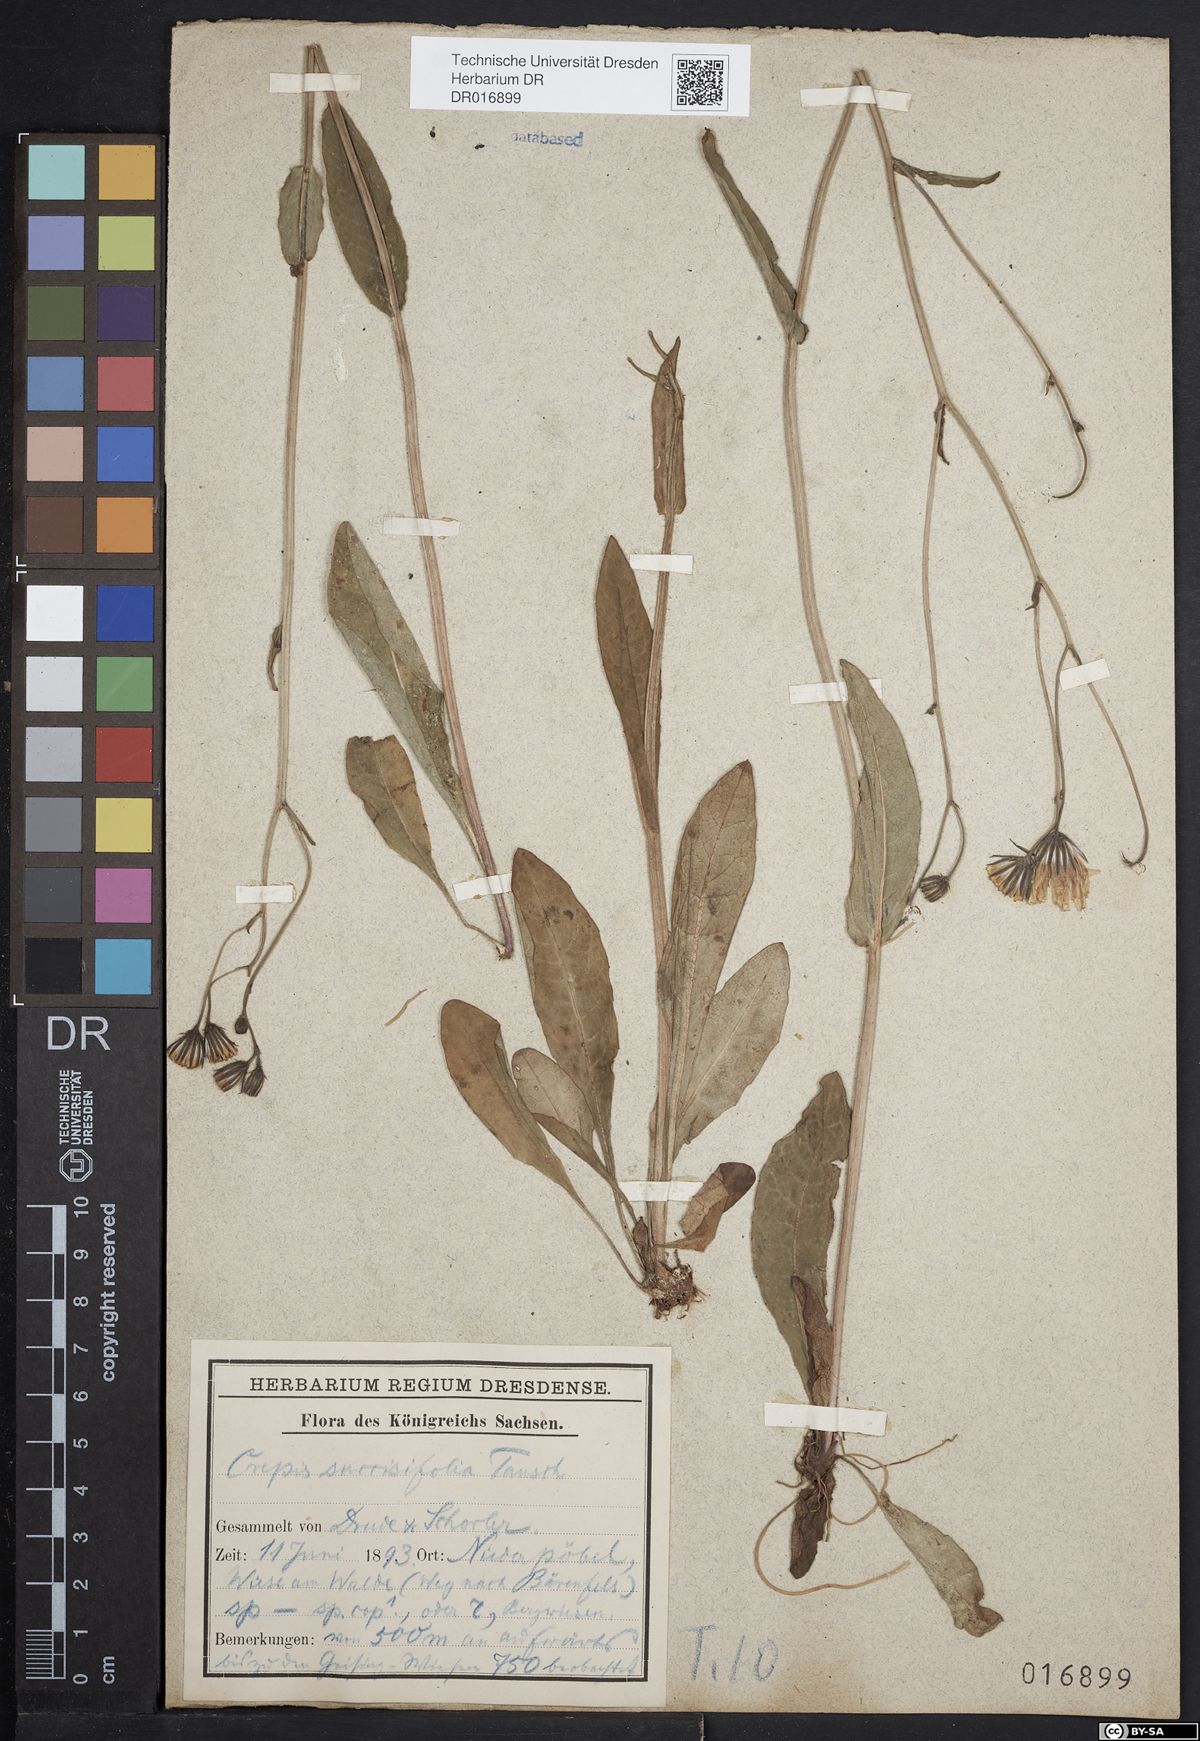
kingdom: Plantae
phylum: Tracheophyta
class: Magnoliopsida
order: Asterales
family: Asteraceae
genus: Crepis
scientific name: Crepis mollis
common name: Northern hawk's-beard
